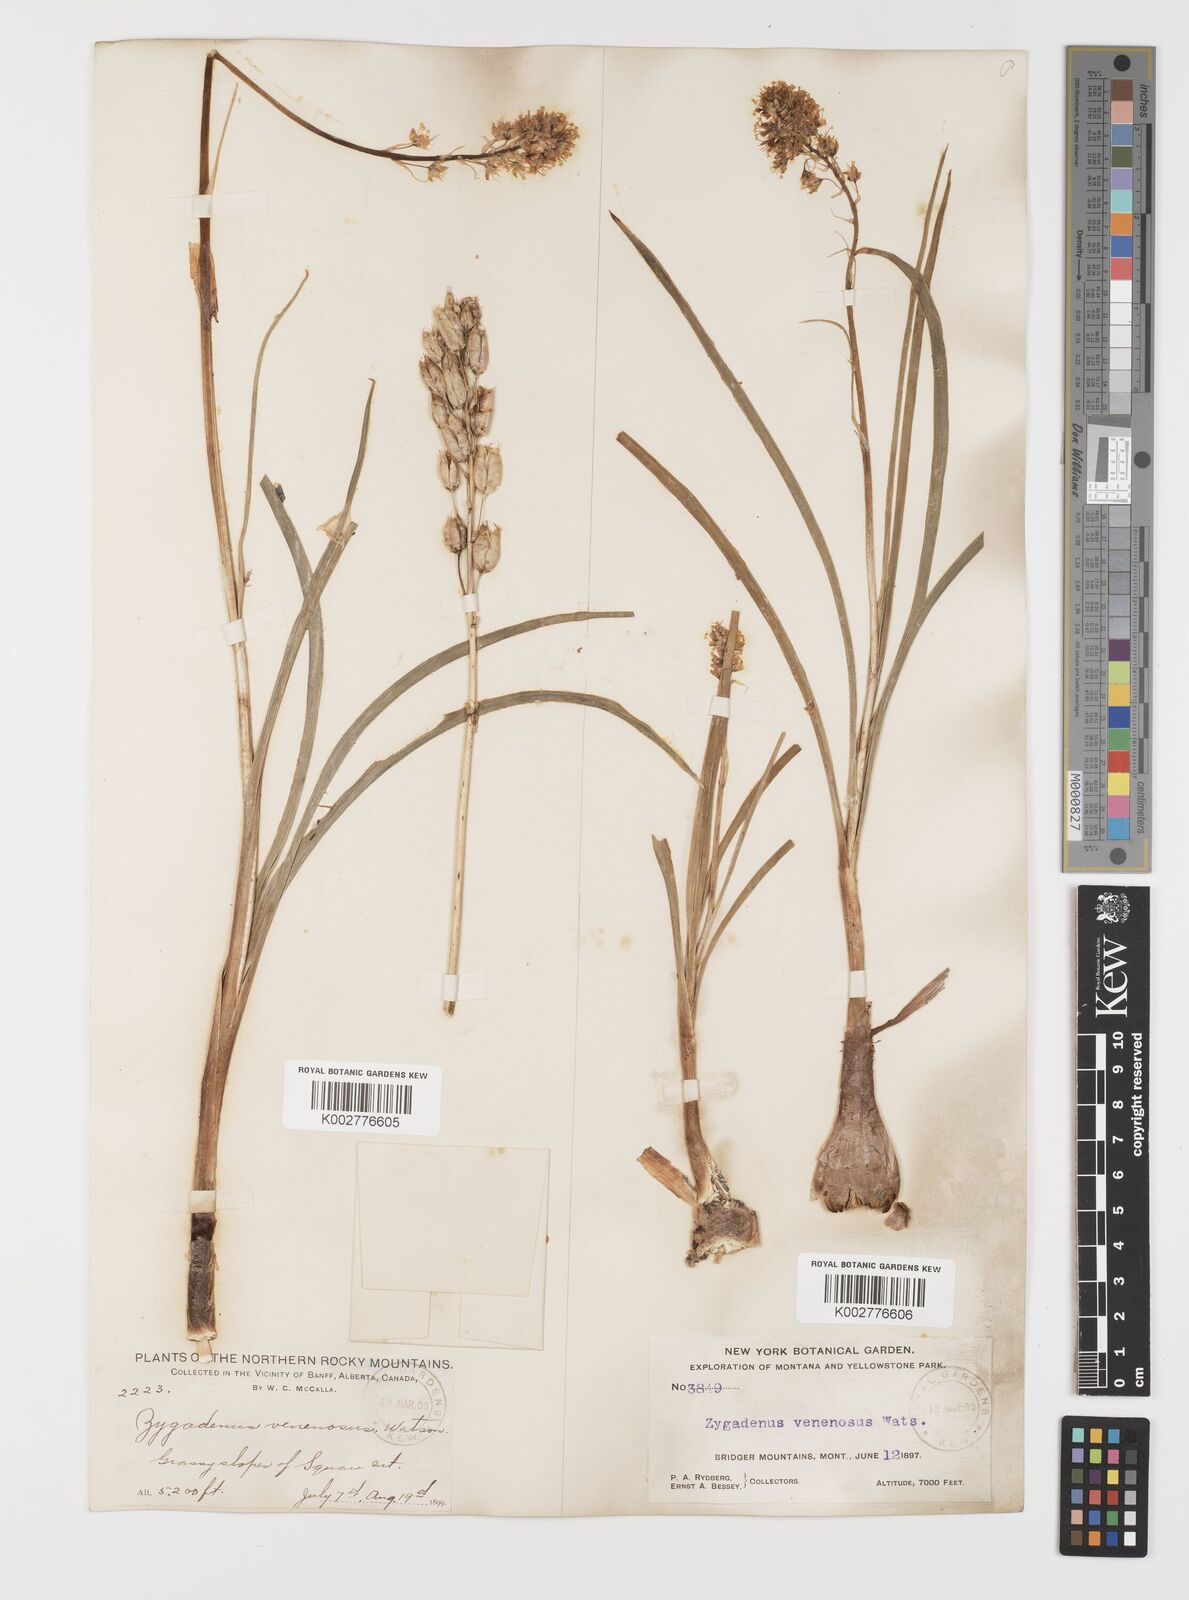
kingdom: Plantae
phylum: Tracheophyta
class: Liliopsida
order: Liliales
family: Melanthiaceae
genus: Toxicoscordion
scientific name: Toxicoscordion venenosum
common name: Meadow death camas
